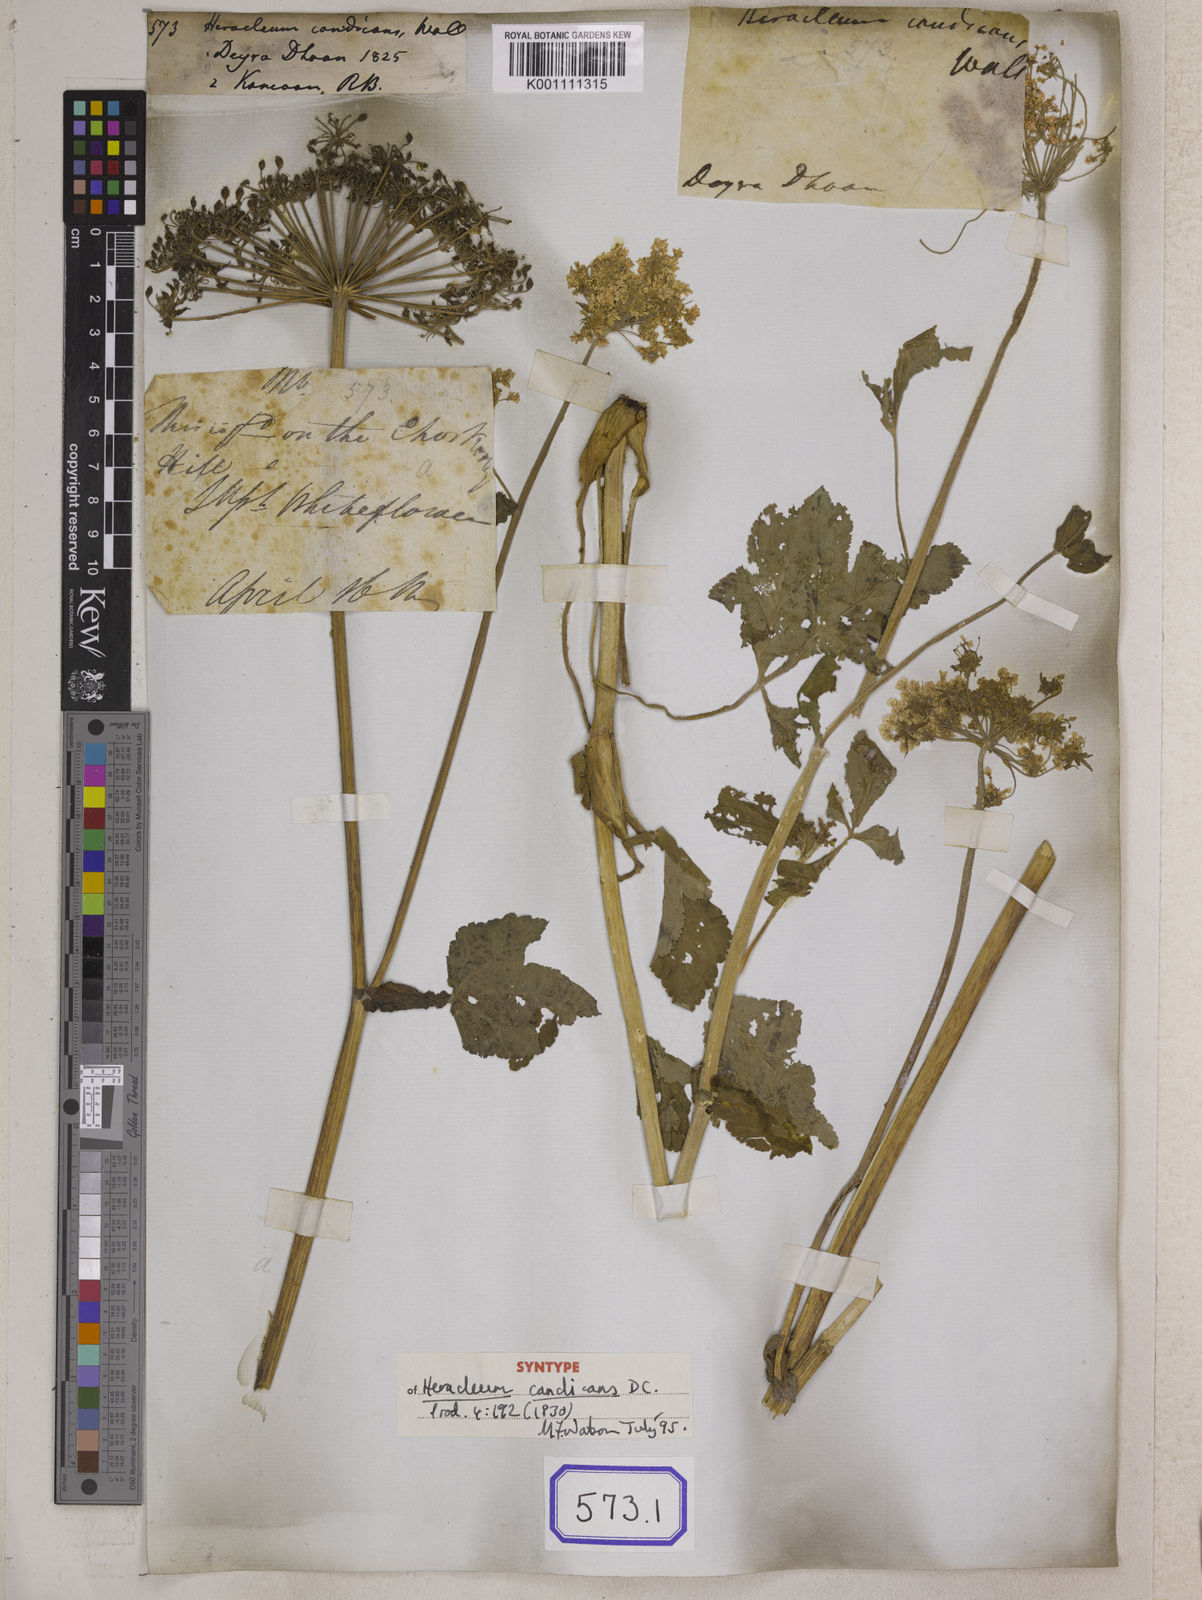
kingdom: Plantae
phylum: Tracheophyta
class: Magnoliopsida
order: Apiales
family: Apiaceae
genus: Heracleum
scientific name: Heracleum
